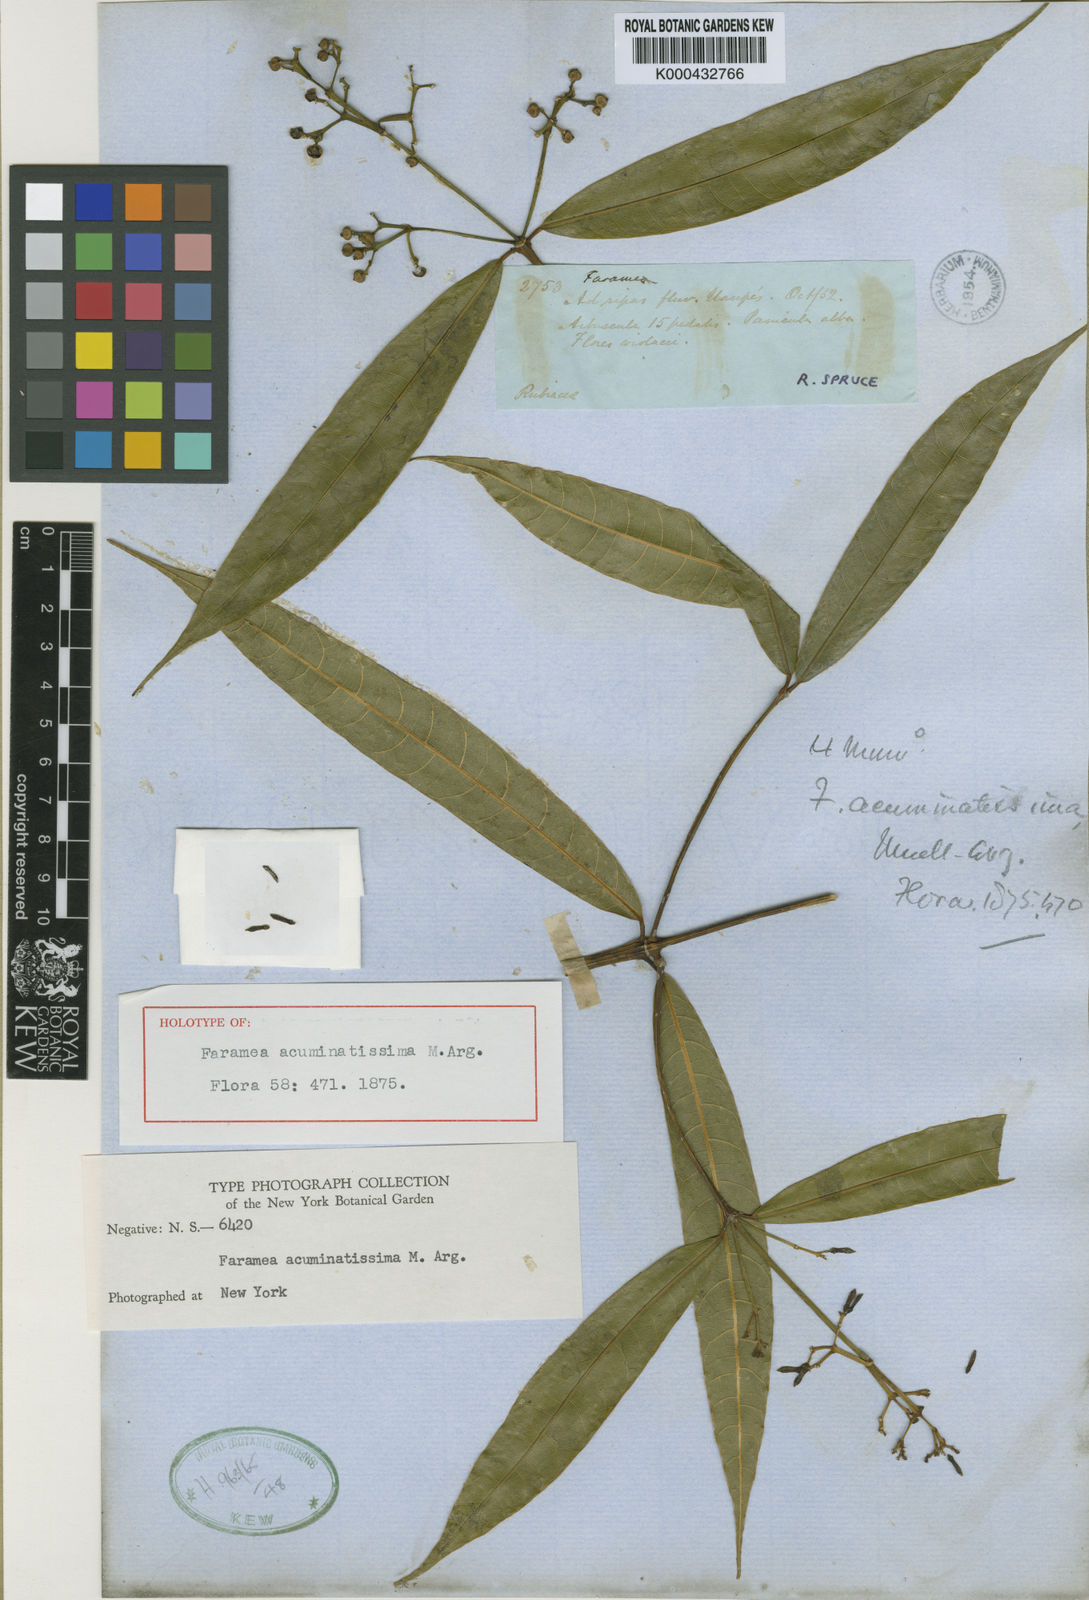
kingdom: Plantae
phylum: Tracheophyta
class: Magnoliopsida
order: Gentianales
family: Rubiaceae
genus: Faramea
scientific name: Faramea
